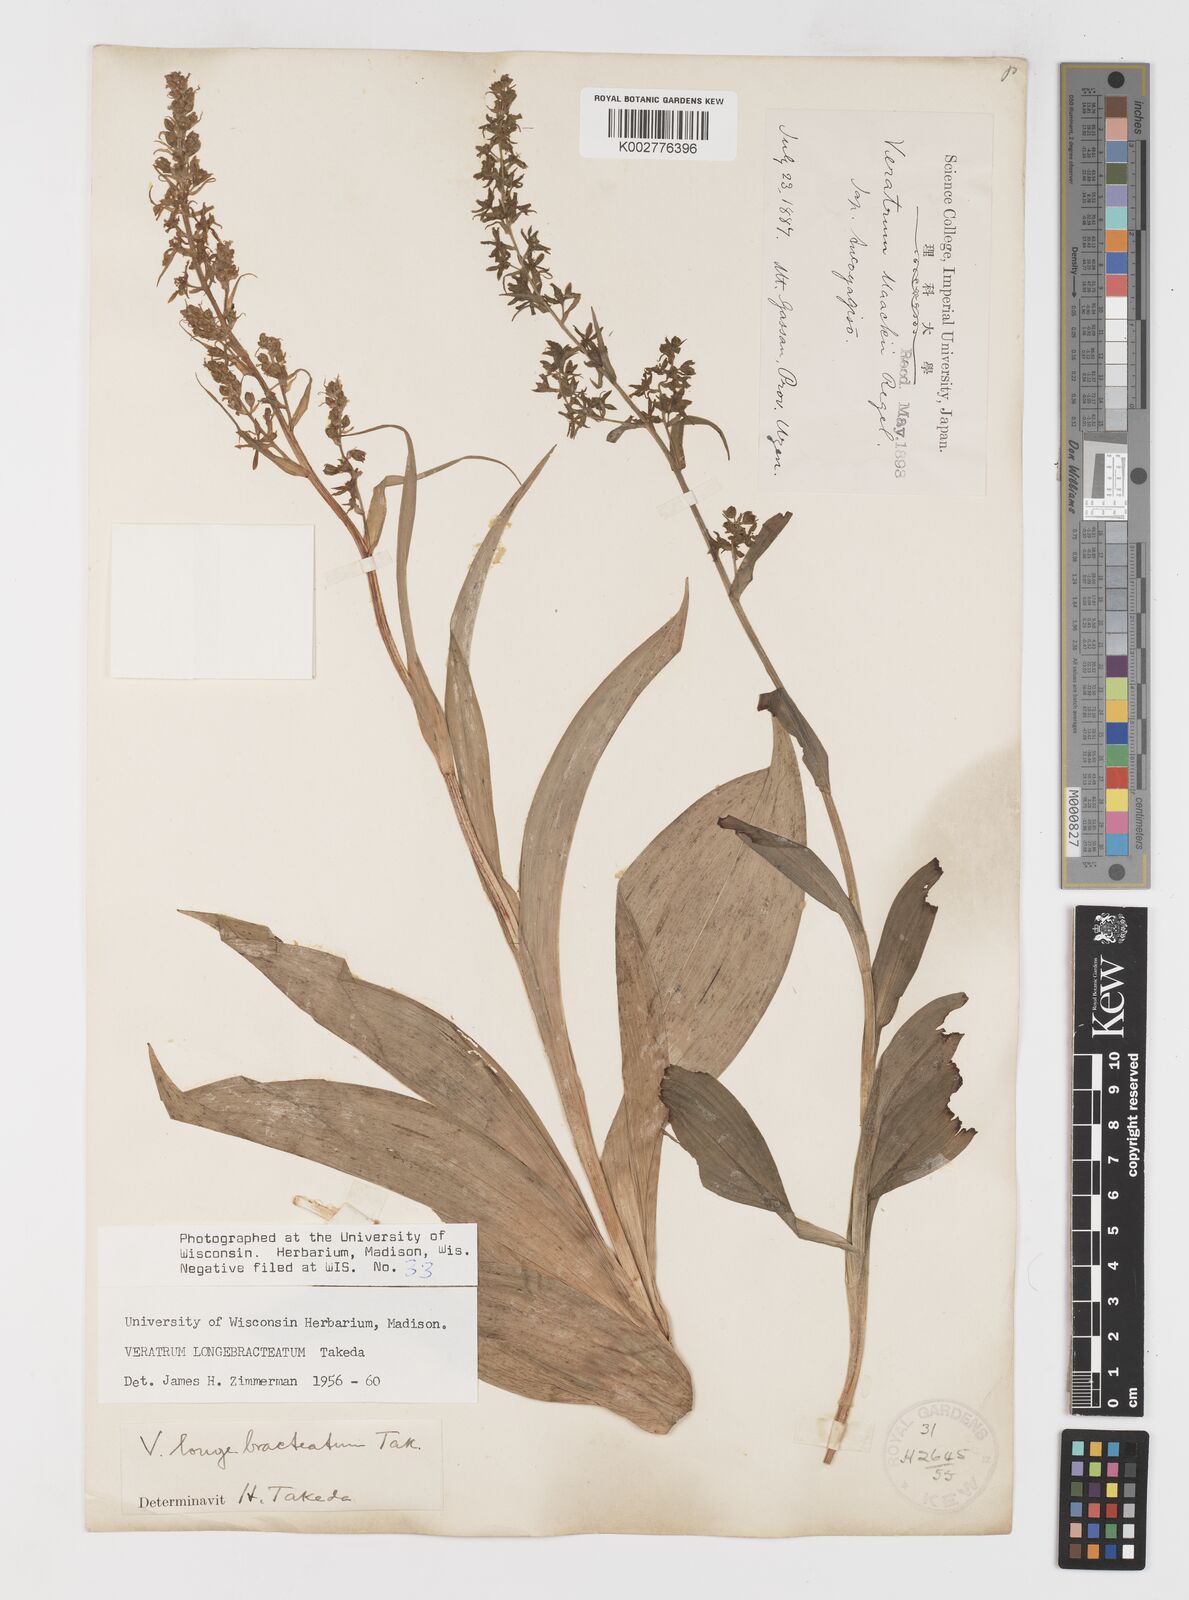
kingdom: Plantae
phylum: Tracheophyta
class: Liliopsida
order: Liliales
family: Melanthiaceae
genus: Veratrum
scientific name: Veratrum longebracteatum
